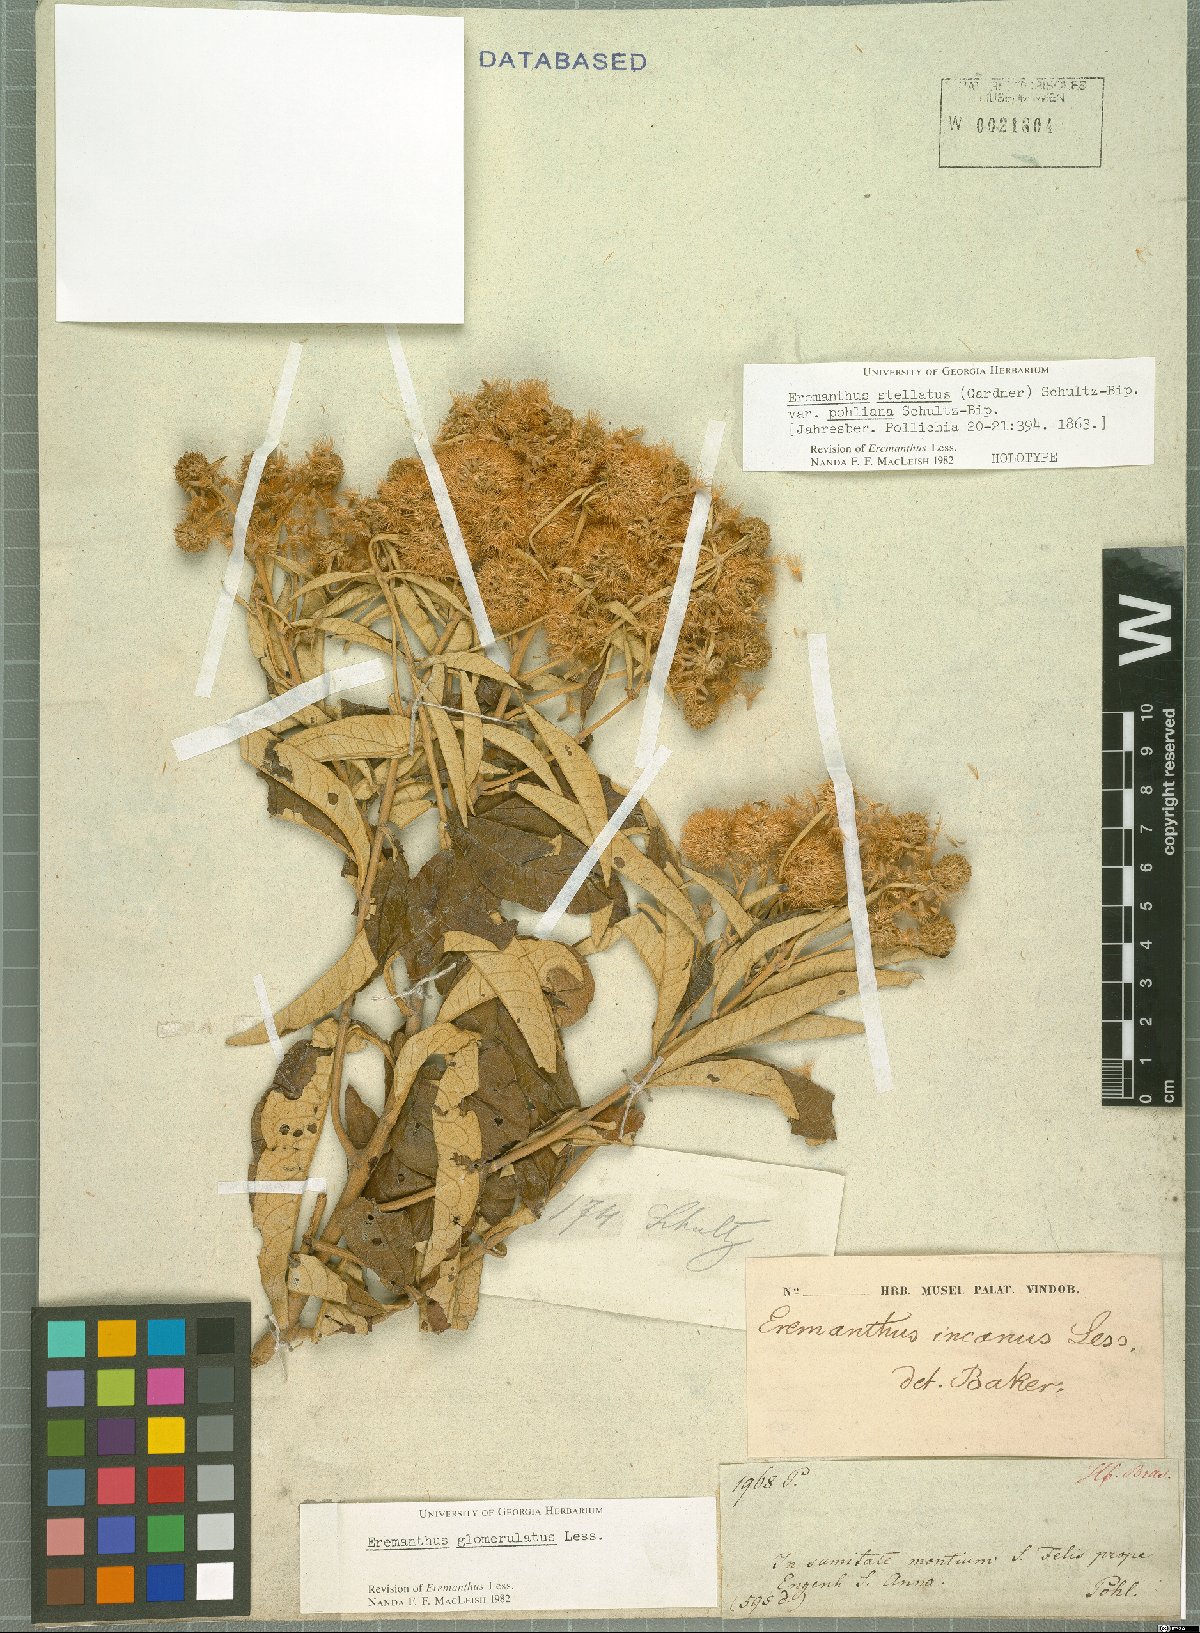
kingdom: Plantae
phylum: Tracheophyta
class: Magnoliopsida
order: Asterales
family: Asteraceae
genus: Eremanthus
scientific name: Eremanthus glomerulatus
